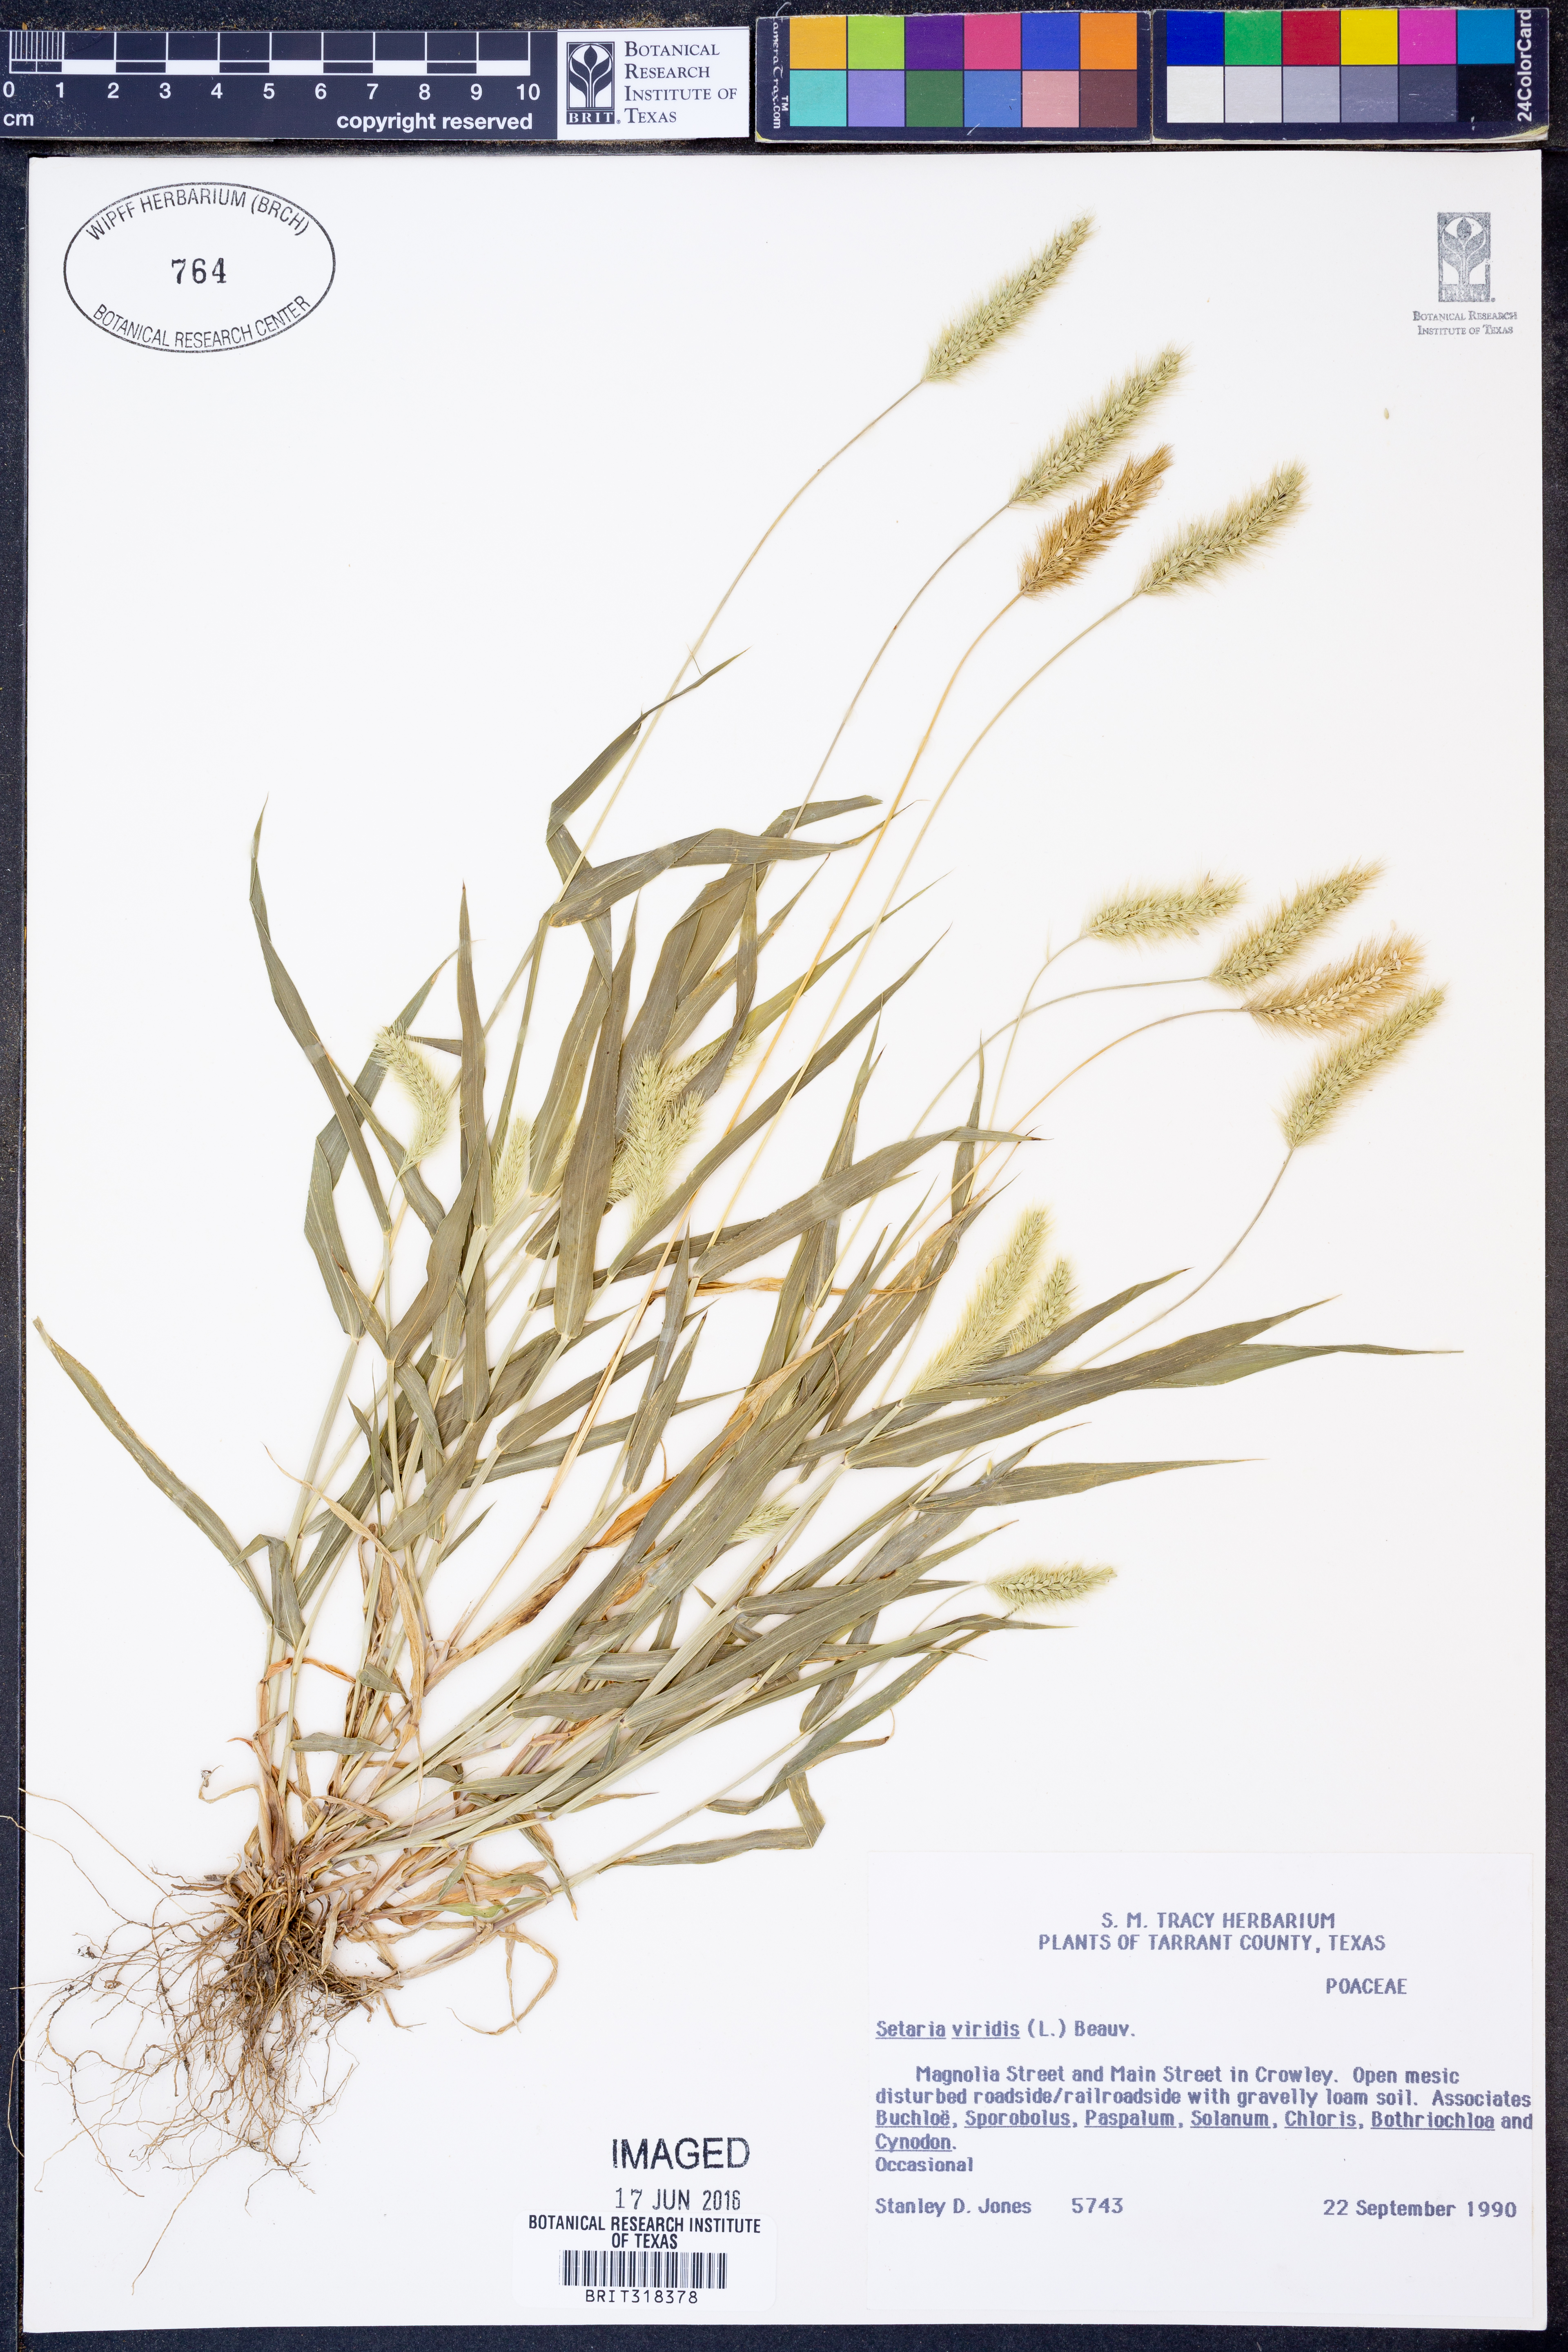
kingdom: Plantae
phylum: Tracheophyta
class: Liliopsida
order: Poales
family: Poaceae
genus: Setaria
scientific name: Setaria viridis
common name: Green bristlegrass
